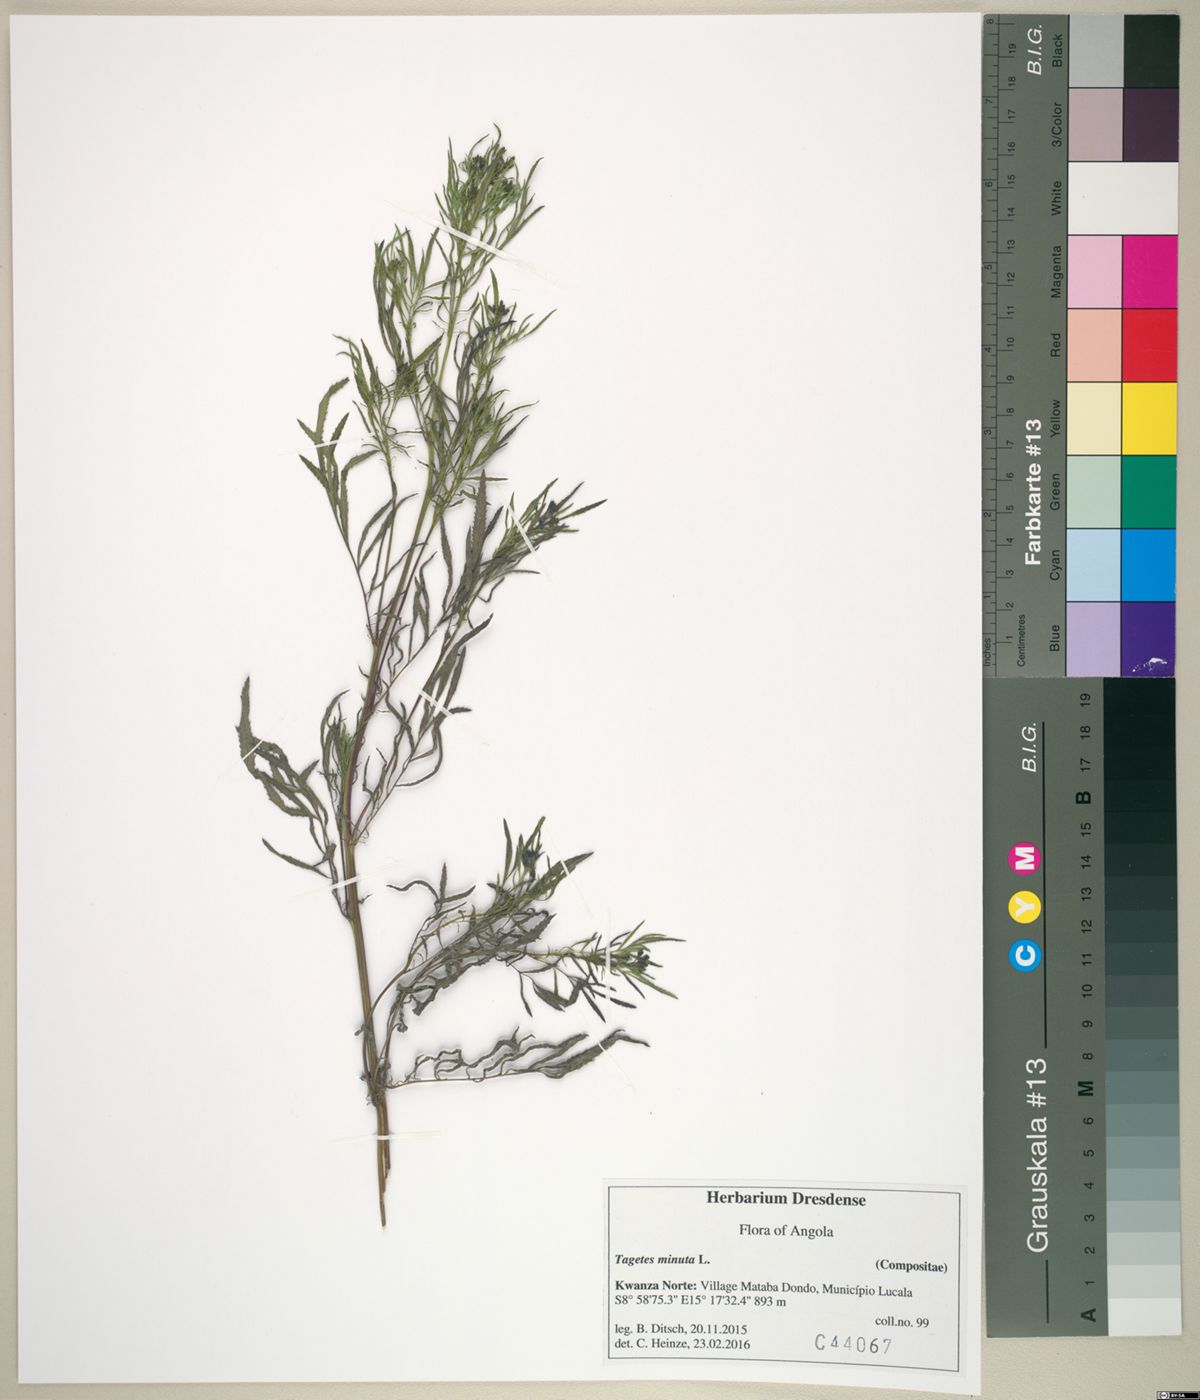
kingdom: Plantae
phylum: Tracheophyta
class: Magnoliopsida
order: Asterales
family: Asteraceae
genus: Tagetes
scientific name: Tagetes minuta
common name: Muster john henry
